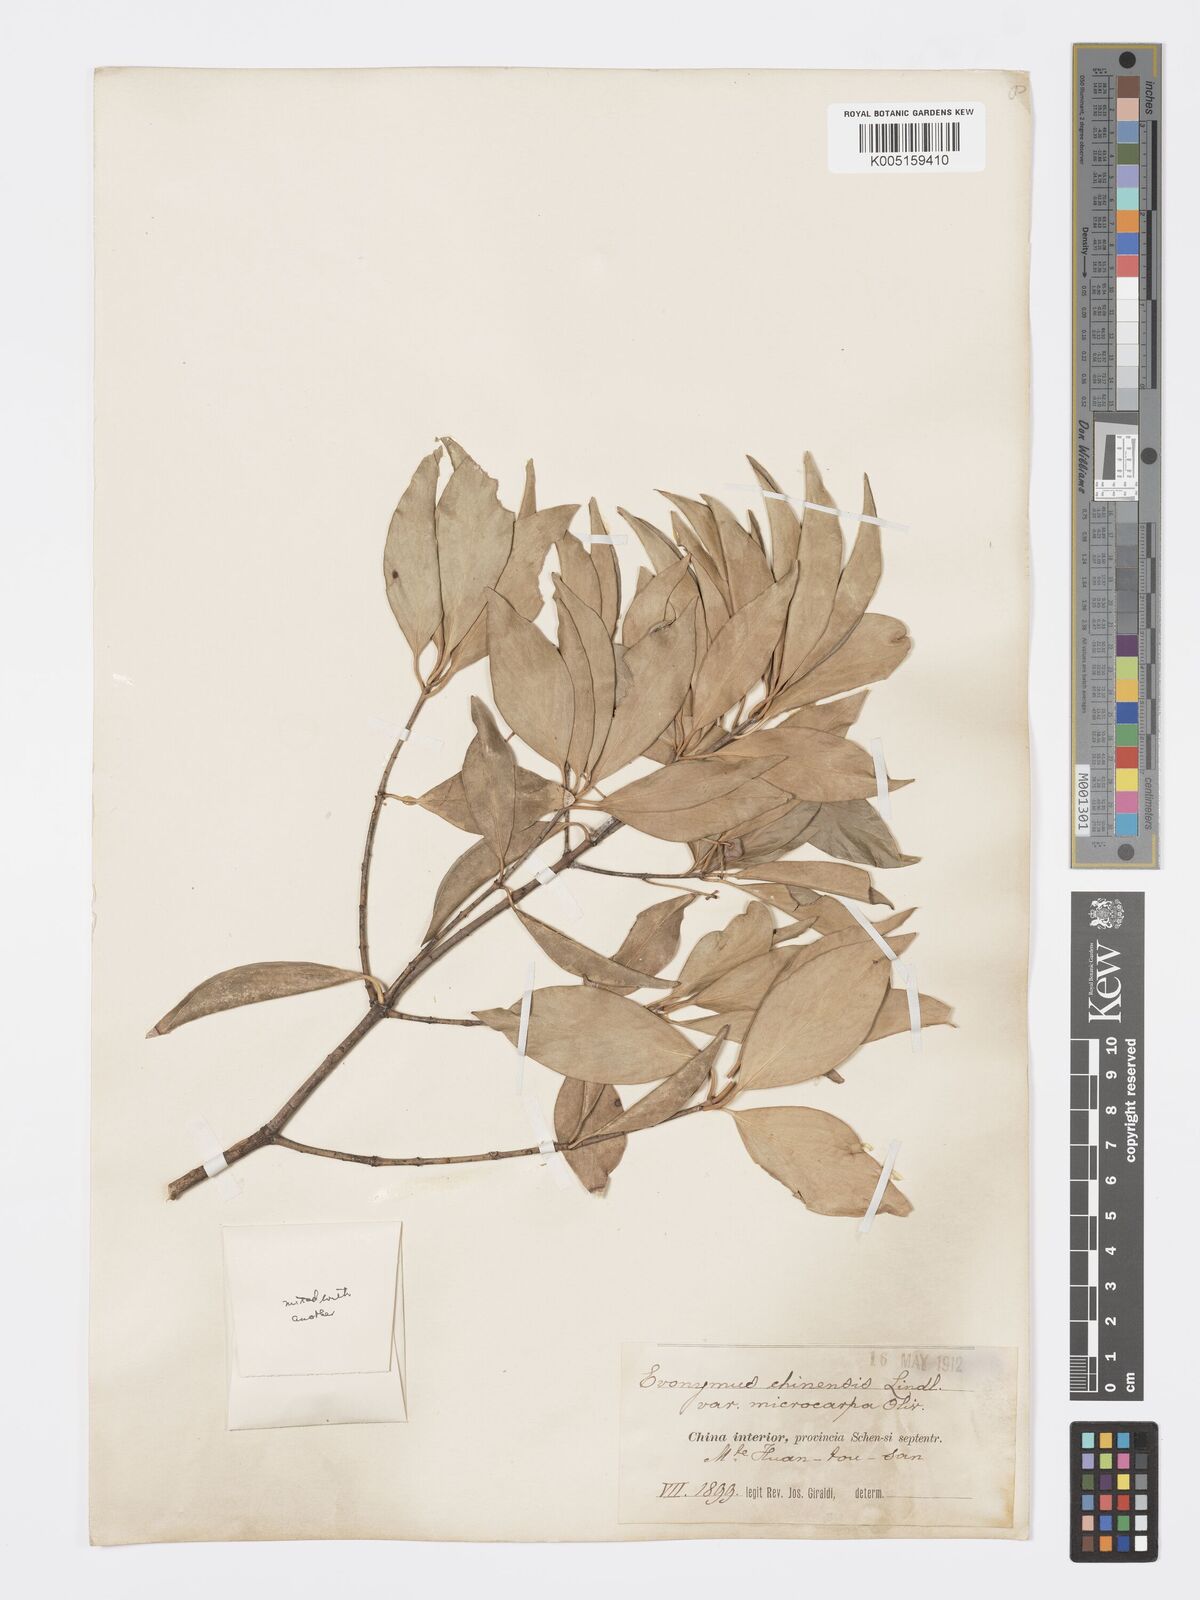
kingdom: Plantae
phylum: Tracheophyta
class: Magnoliopsida
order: Celastrales
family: Celastraceae
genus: Euonymus
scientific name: Euonymus
